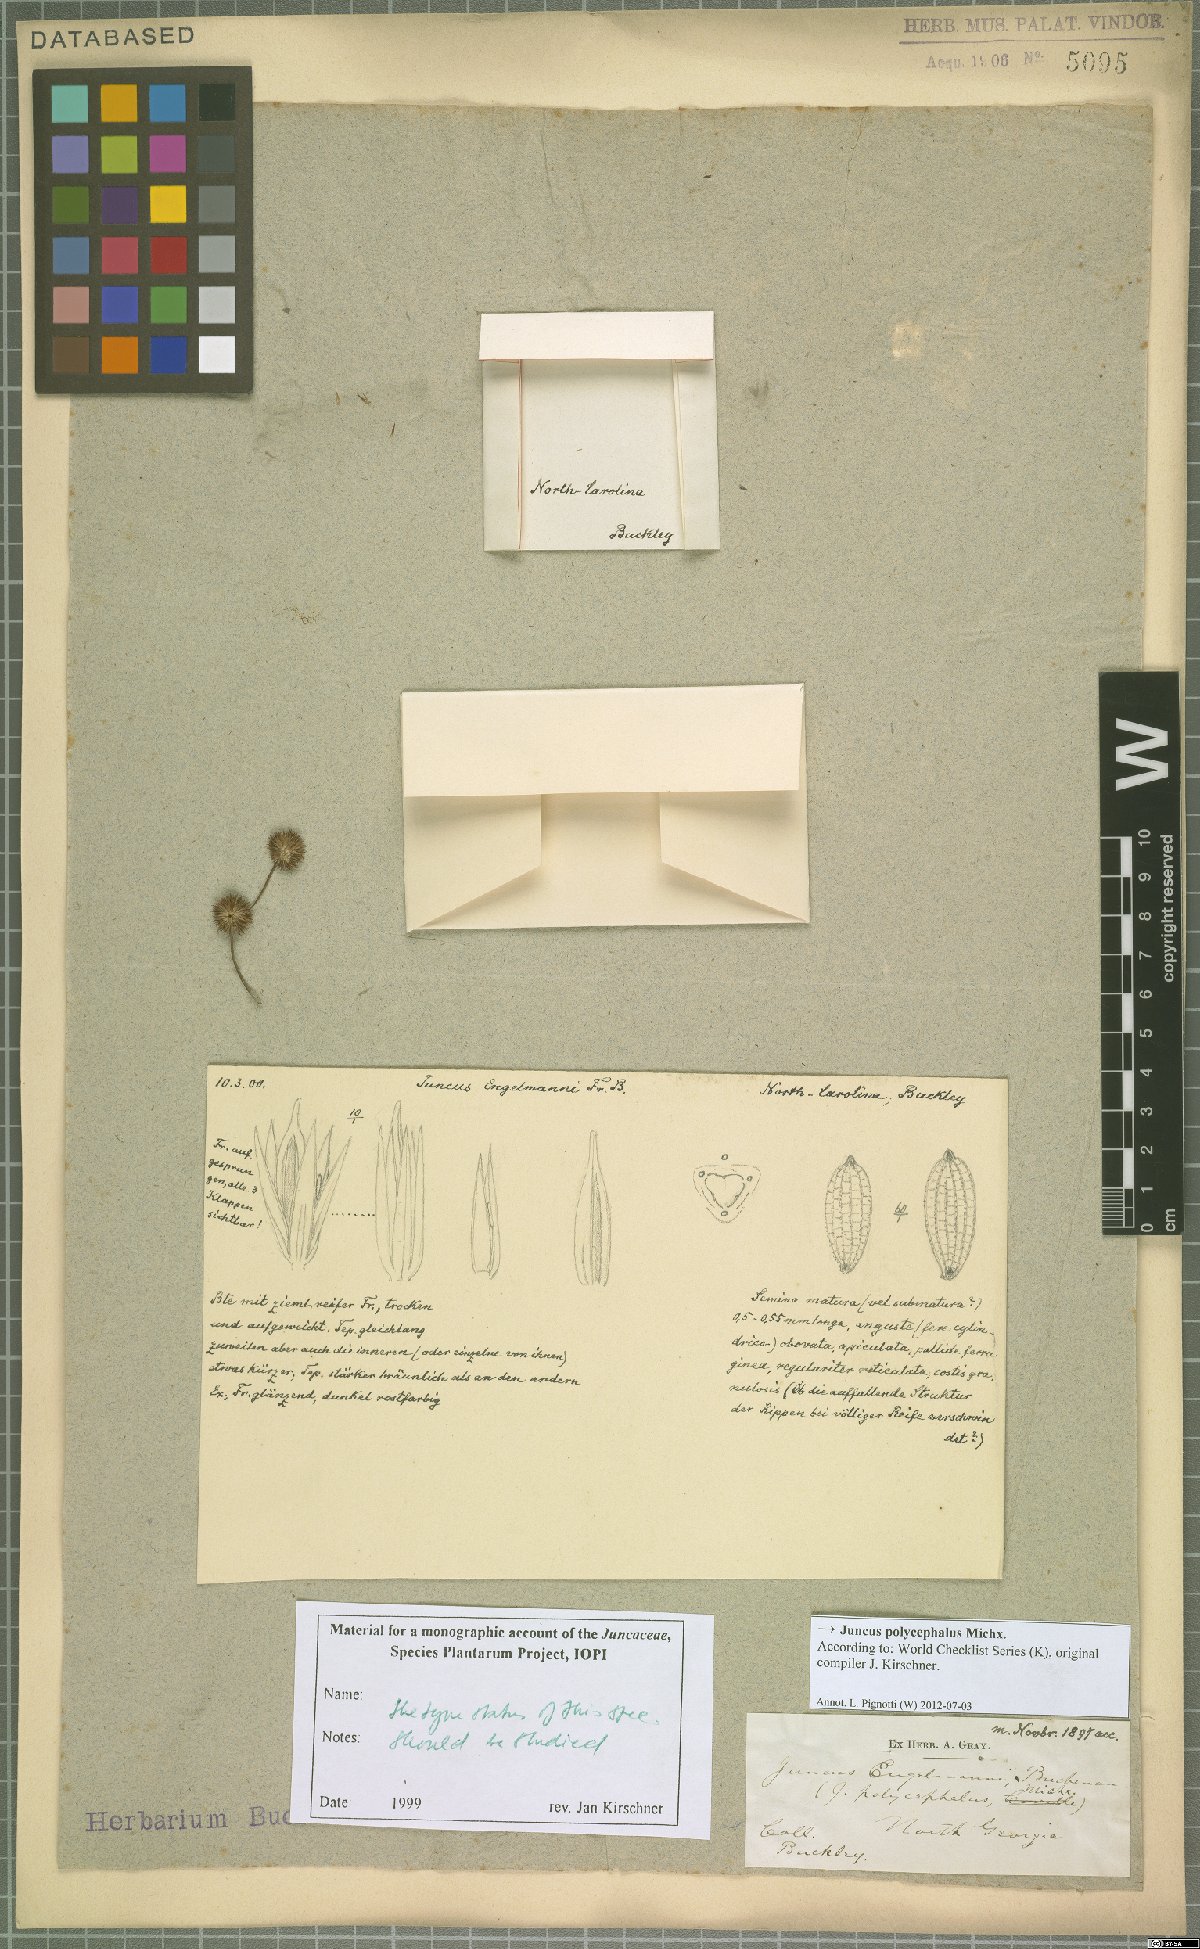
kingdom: Plantae
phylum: Tracheophyta
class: Liliopsida
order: Poales
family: Juncaceae
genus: Juncus
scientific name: Juncus polycephalus
